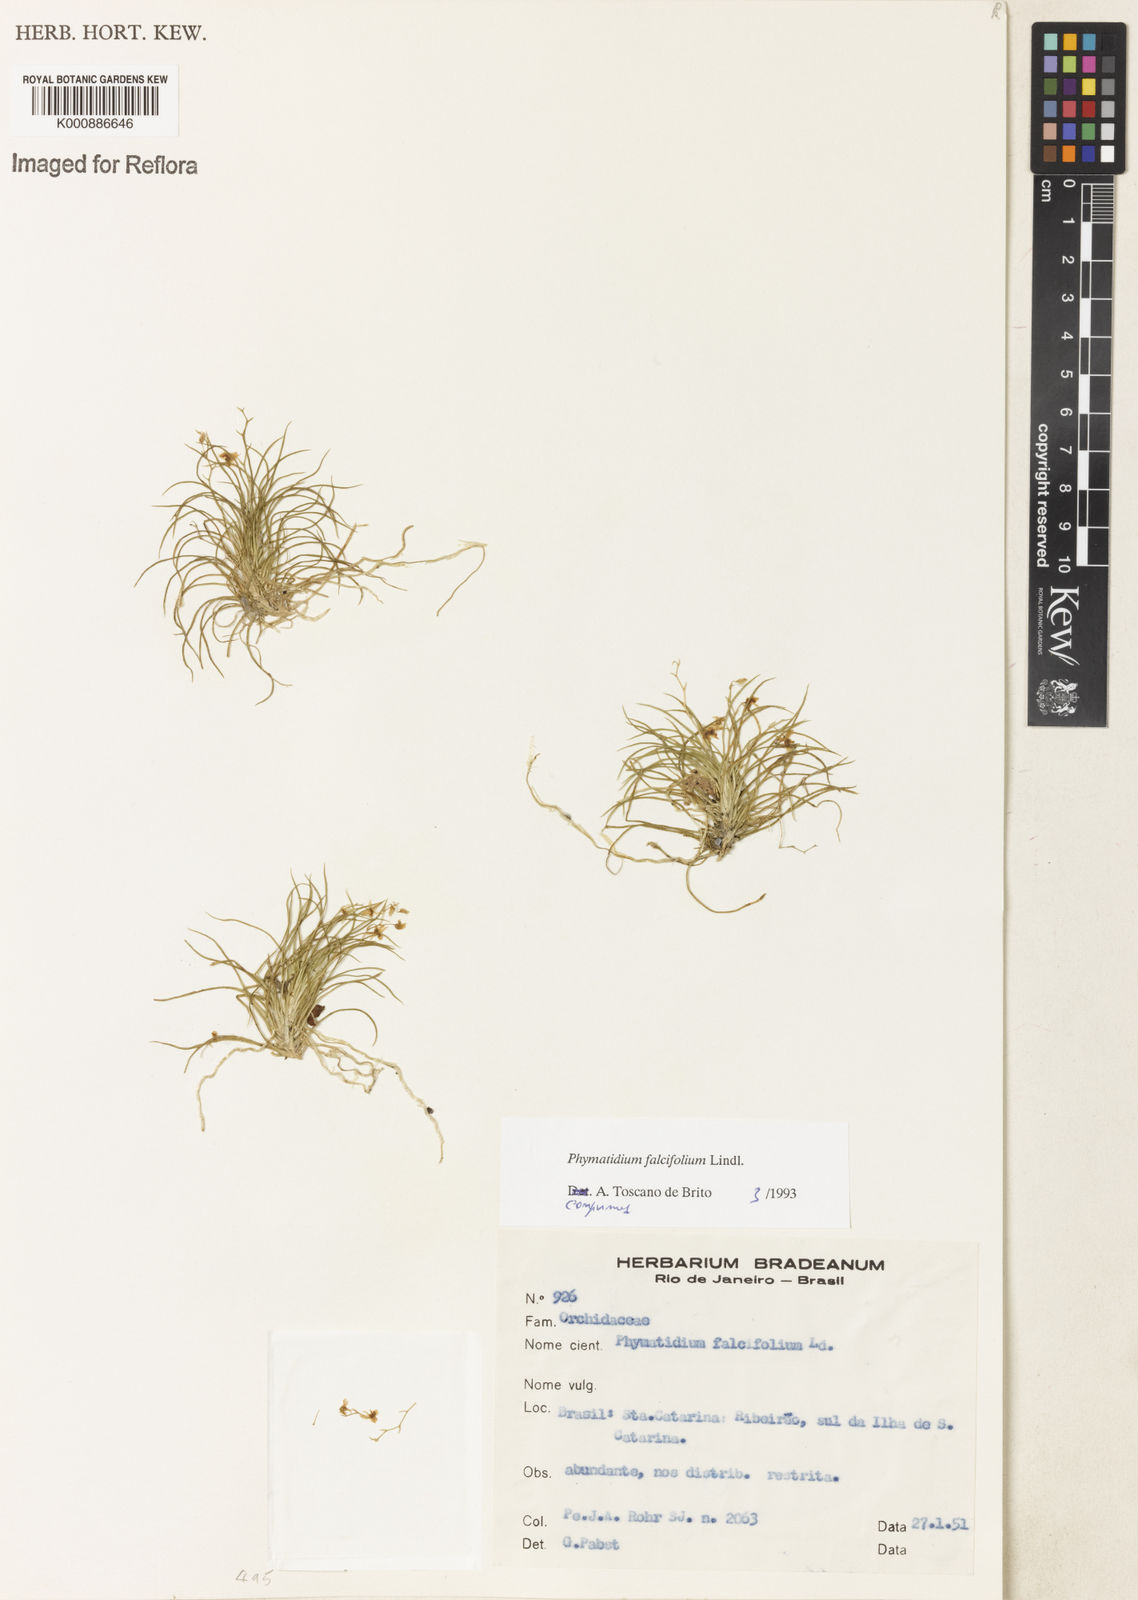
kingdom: Plantae
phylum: Tracheophyta
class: Liliopsida
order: Asparagales
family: Orchidaceae
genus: Phymatidium
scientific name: Phymatidium falcifolium
